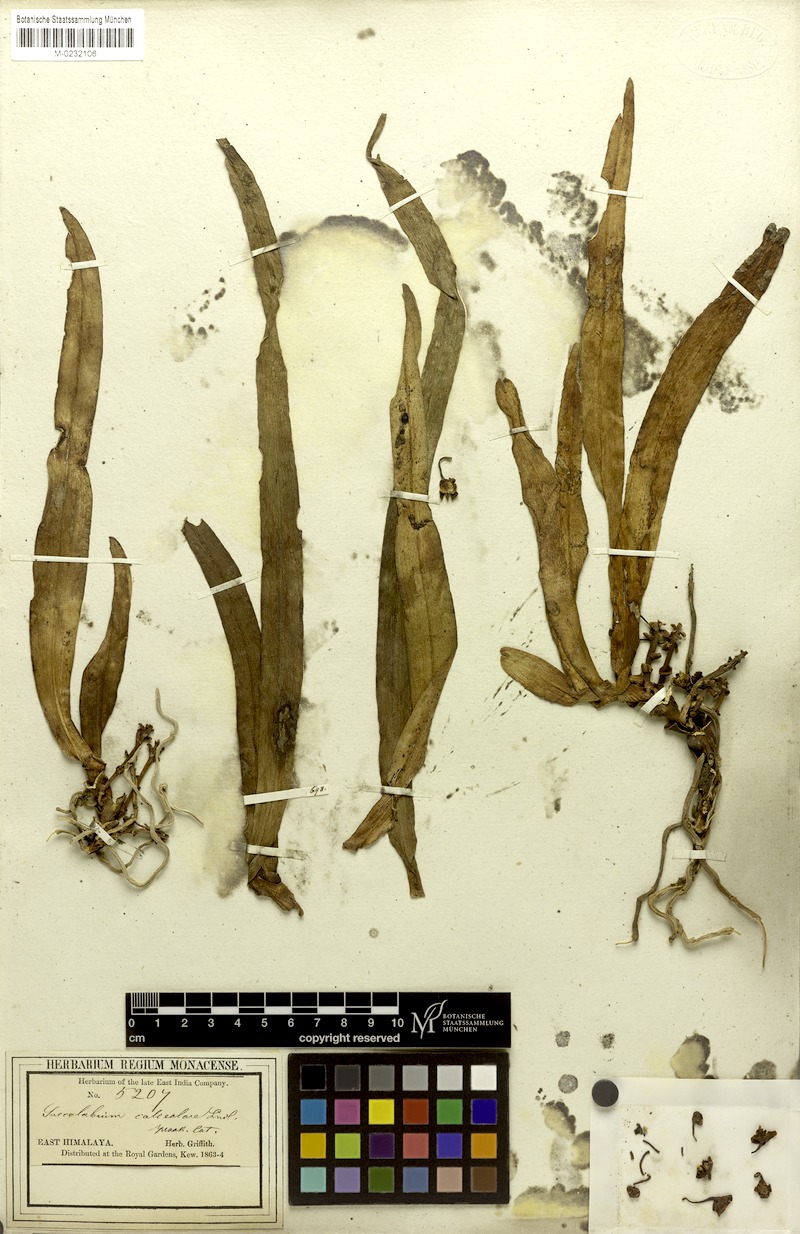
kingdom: Plantae
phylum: Tracheophyta
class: Liliopsida
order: Asparagales
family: Orchidaceae
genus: Gastrochilus
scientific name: Gastrochilus calceolaris
